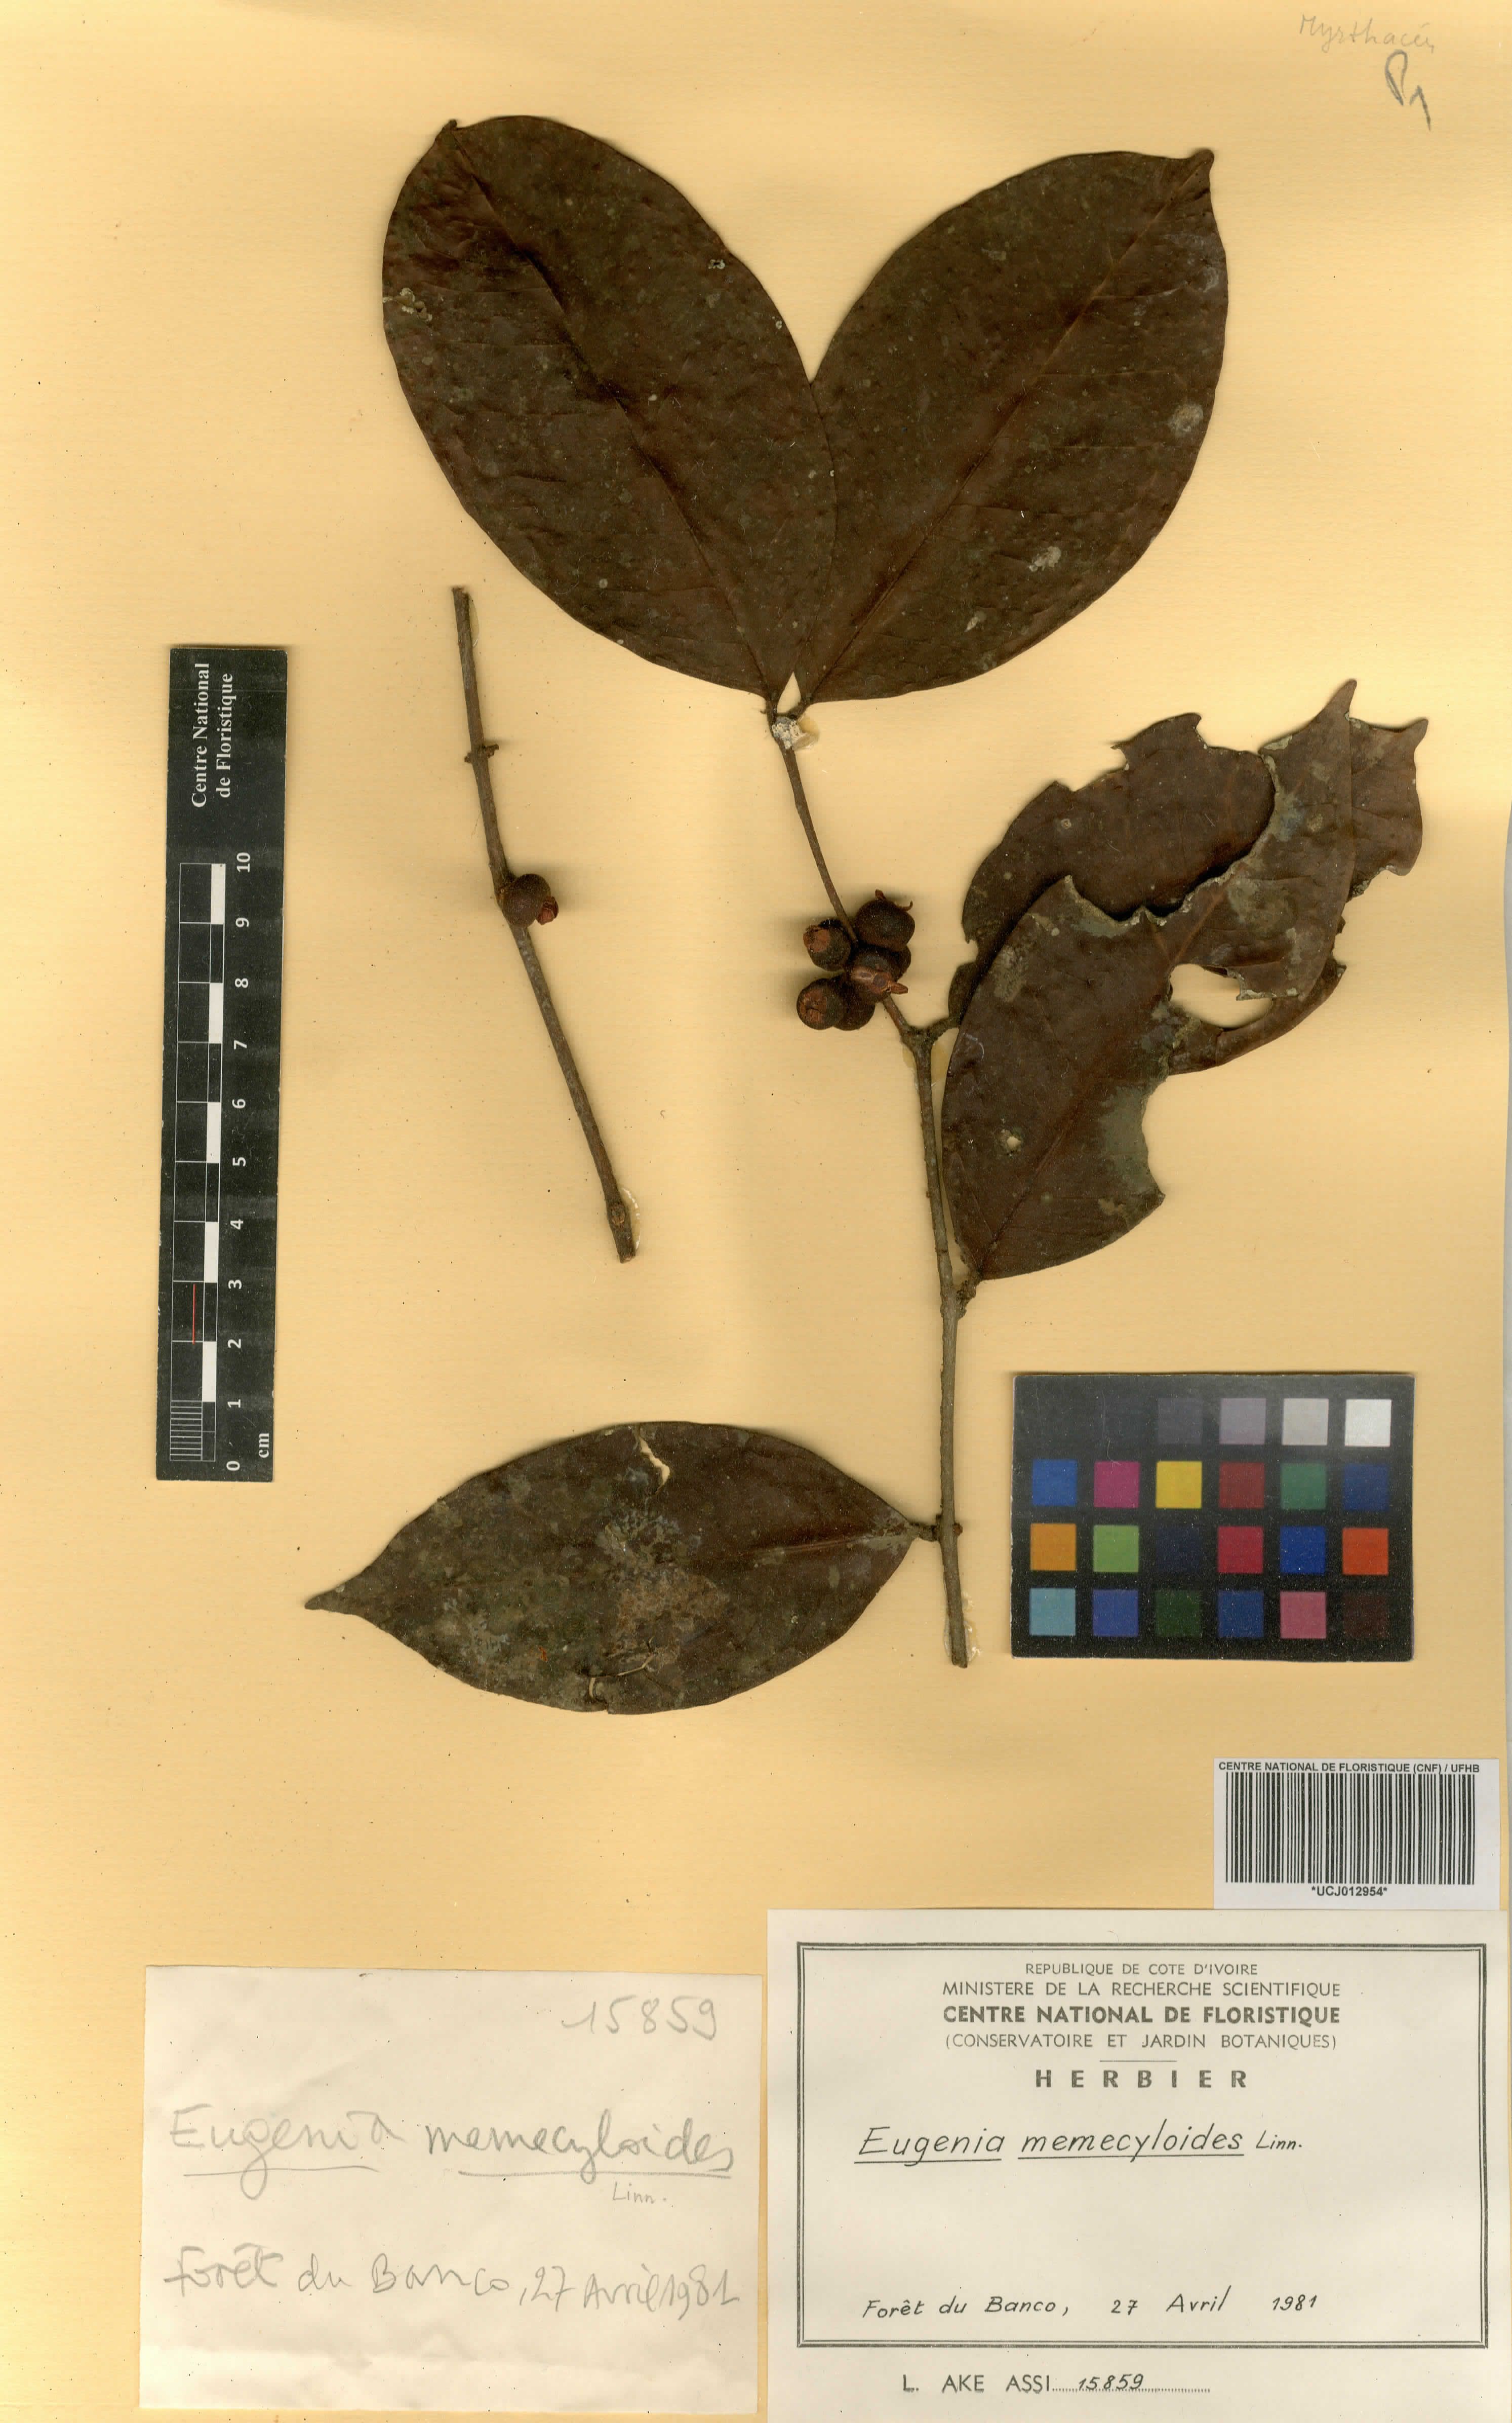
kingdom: Plantae
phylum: Tracheophyta
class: Magnoliopsida
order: Myrtales
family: Myrtaceae
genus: Eugenia
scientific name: Eugenia memecyloides
